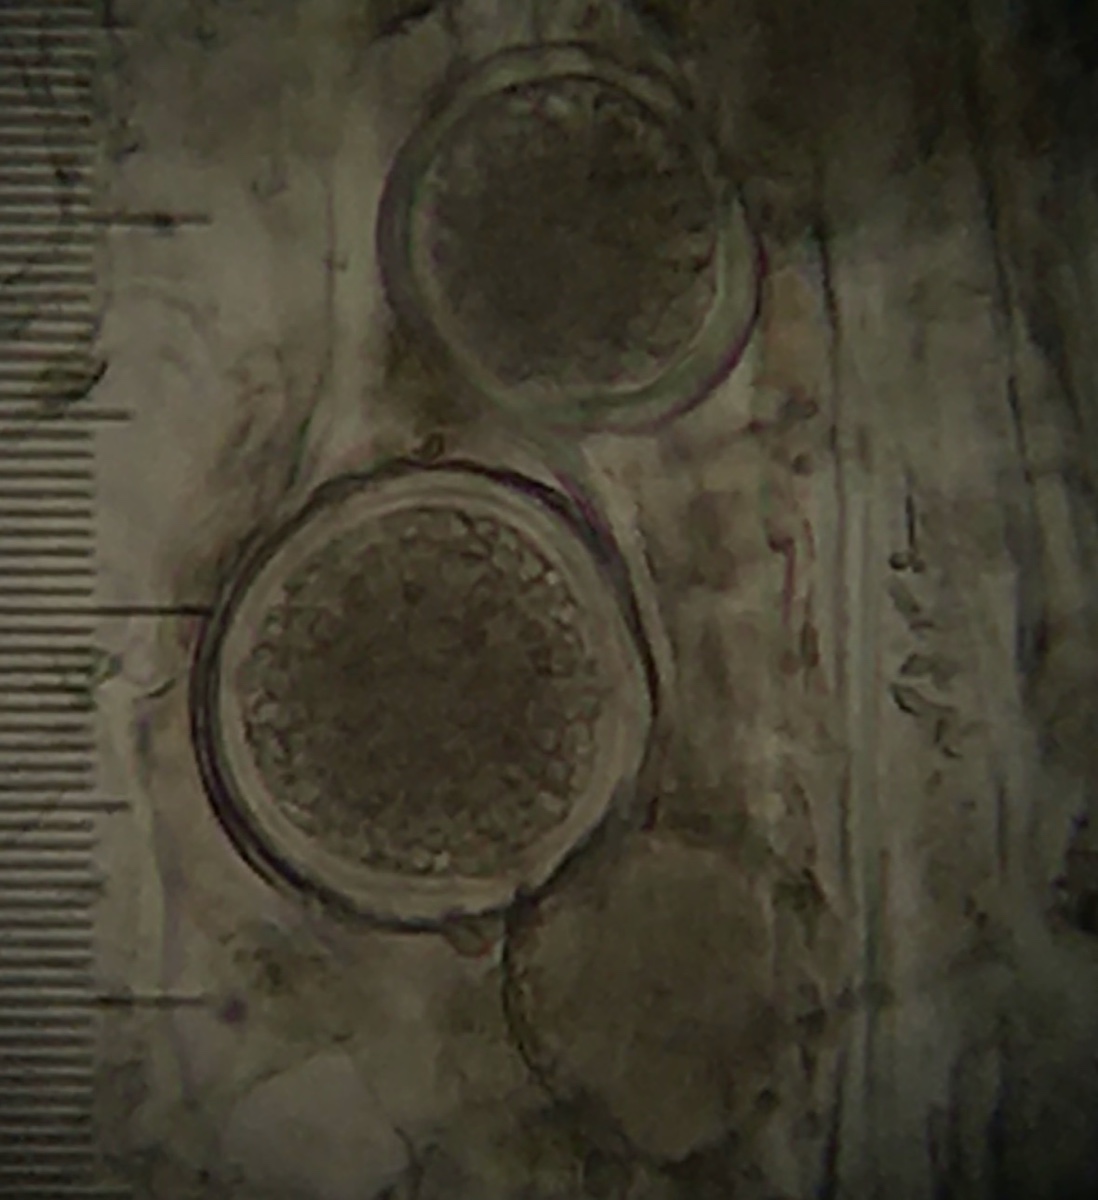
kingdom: Fungi
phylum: Ascomycota
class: Taphrinomycetes
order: Taphrinales
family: Taphrinaceae
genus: Protomyces
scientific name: Protomyces macrosporus
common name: skvalderkål-vablesæk
